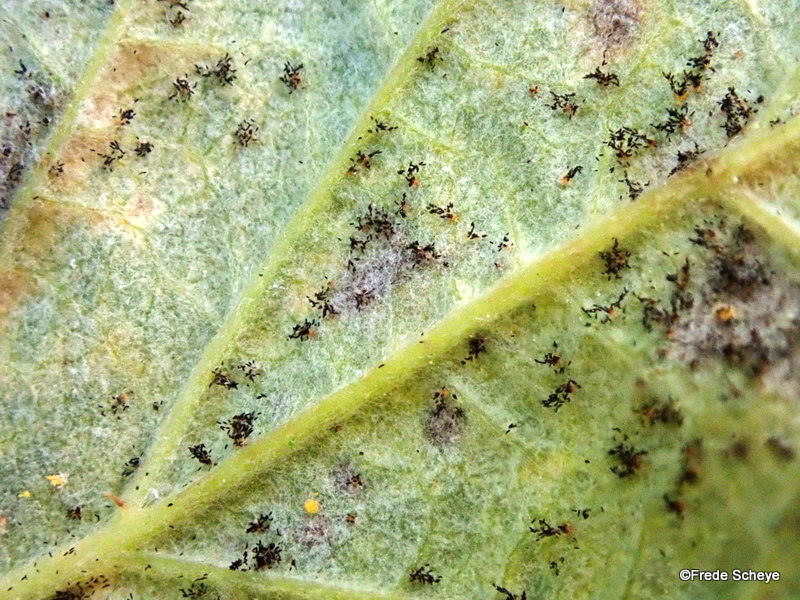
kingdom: Fungi
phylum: Basidiomycota
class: Pucciniomycetes
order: Pucciniales
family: Phragmidiaceae
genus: Phragmidium
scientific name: Phragmidium rubi-idaei
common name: hindbær-flercellerust
